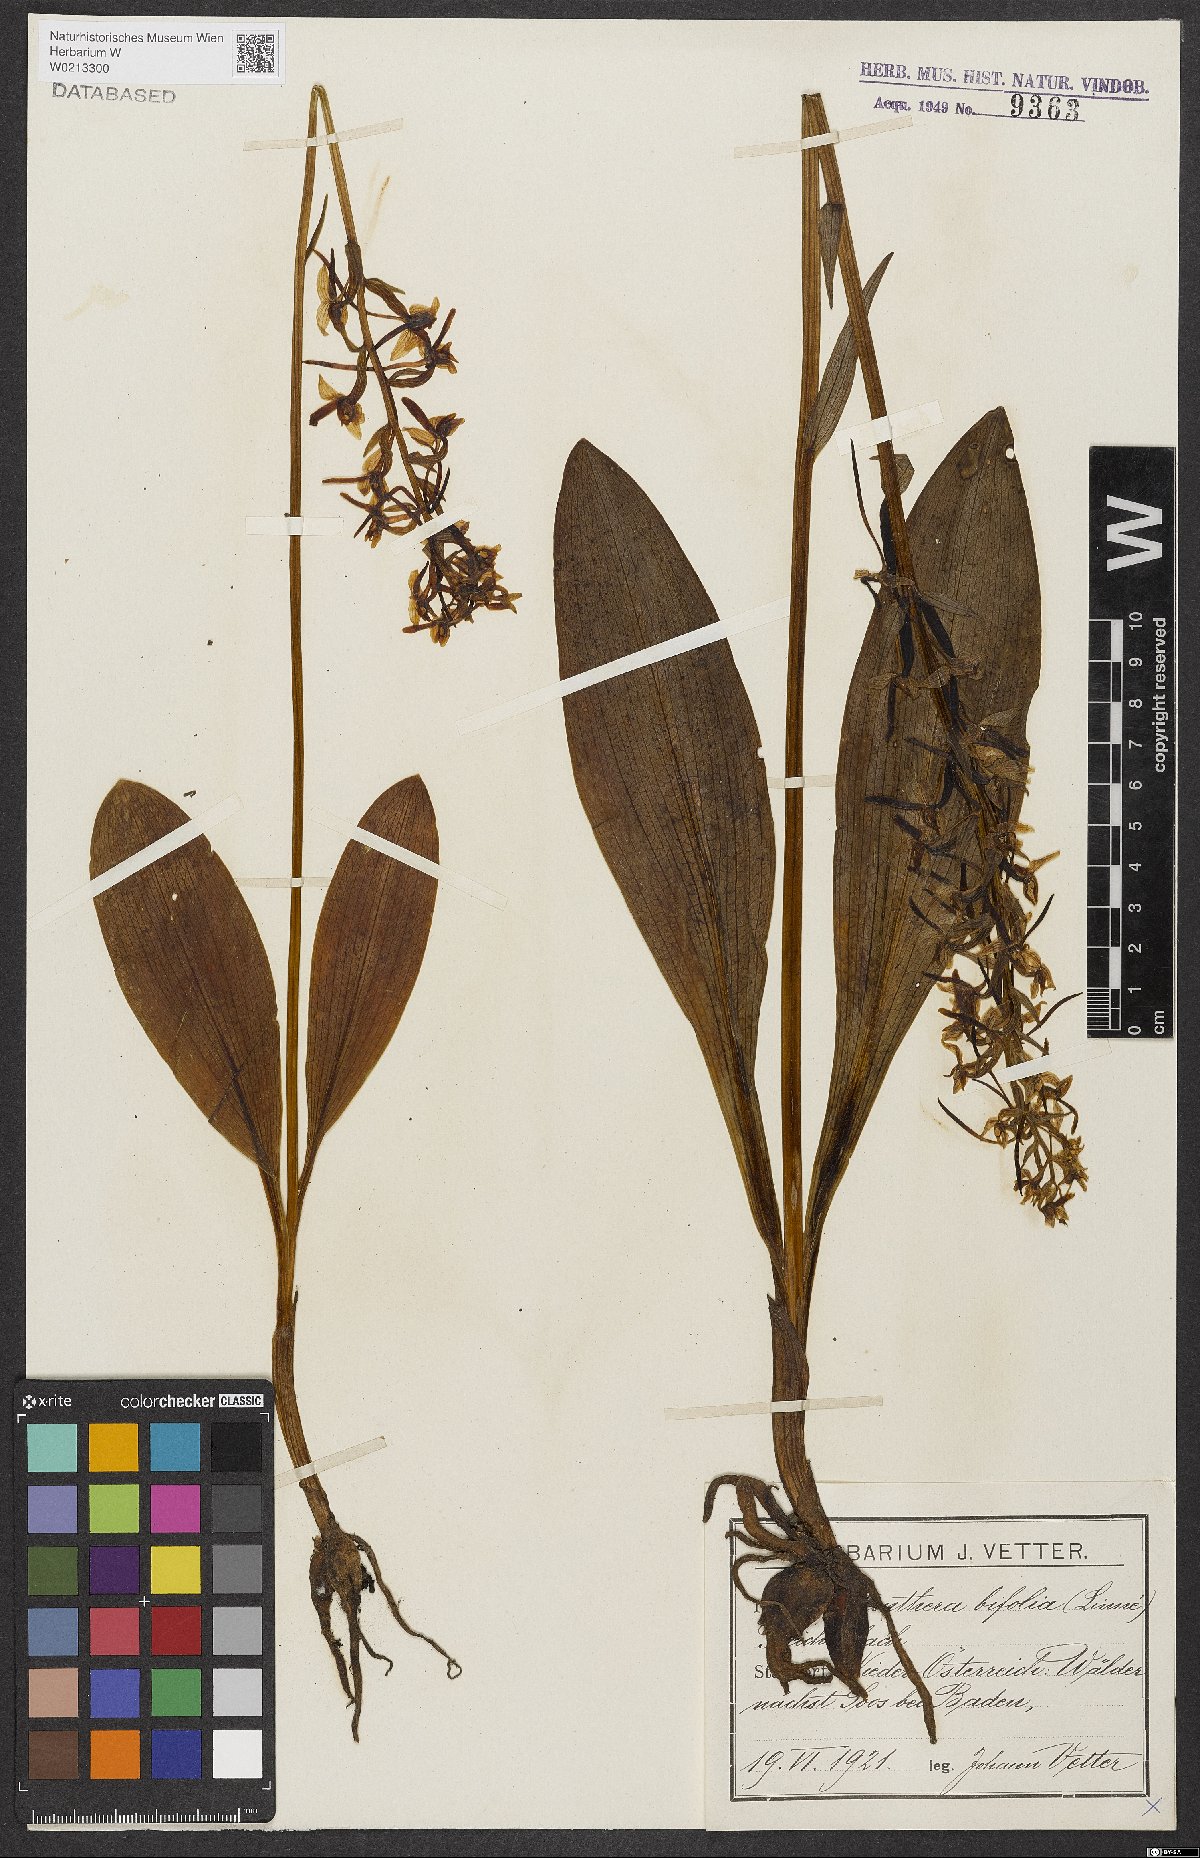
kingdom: Plantae
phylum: Tracheophyta
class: Liliopsida
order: Asparagales
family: Orchidaceae
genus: Platanthera
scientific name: Platanthera bifolia
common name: Lesser butterfly-orchid
